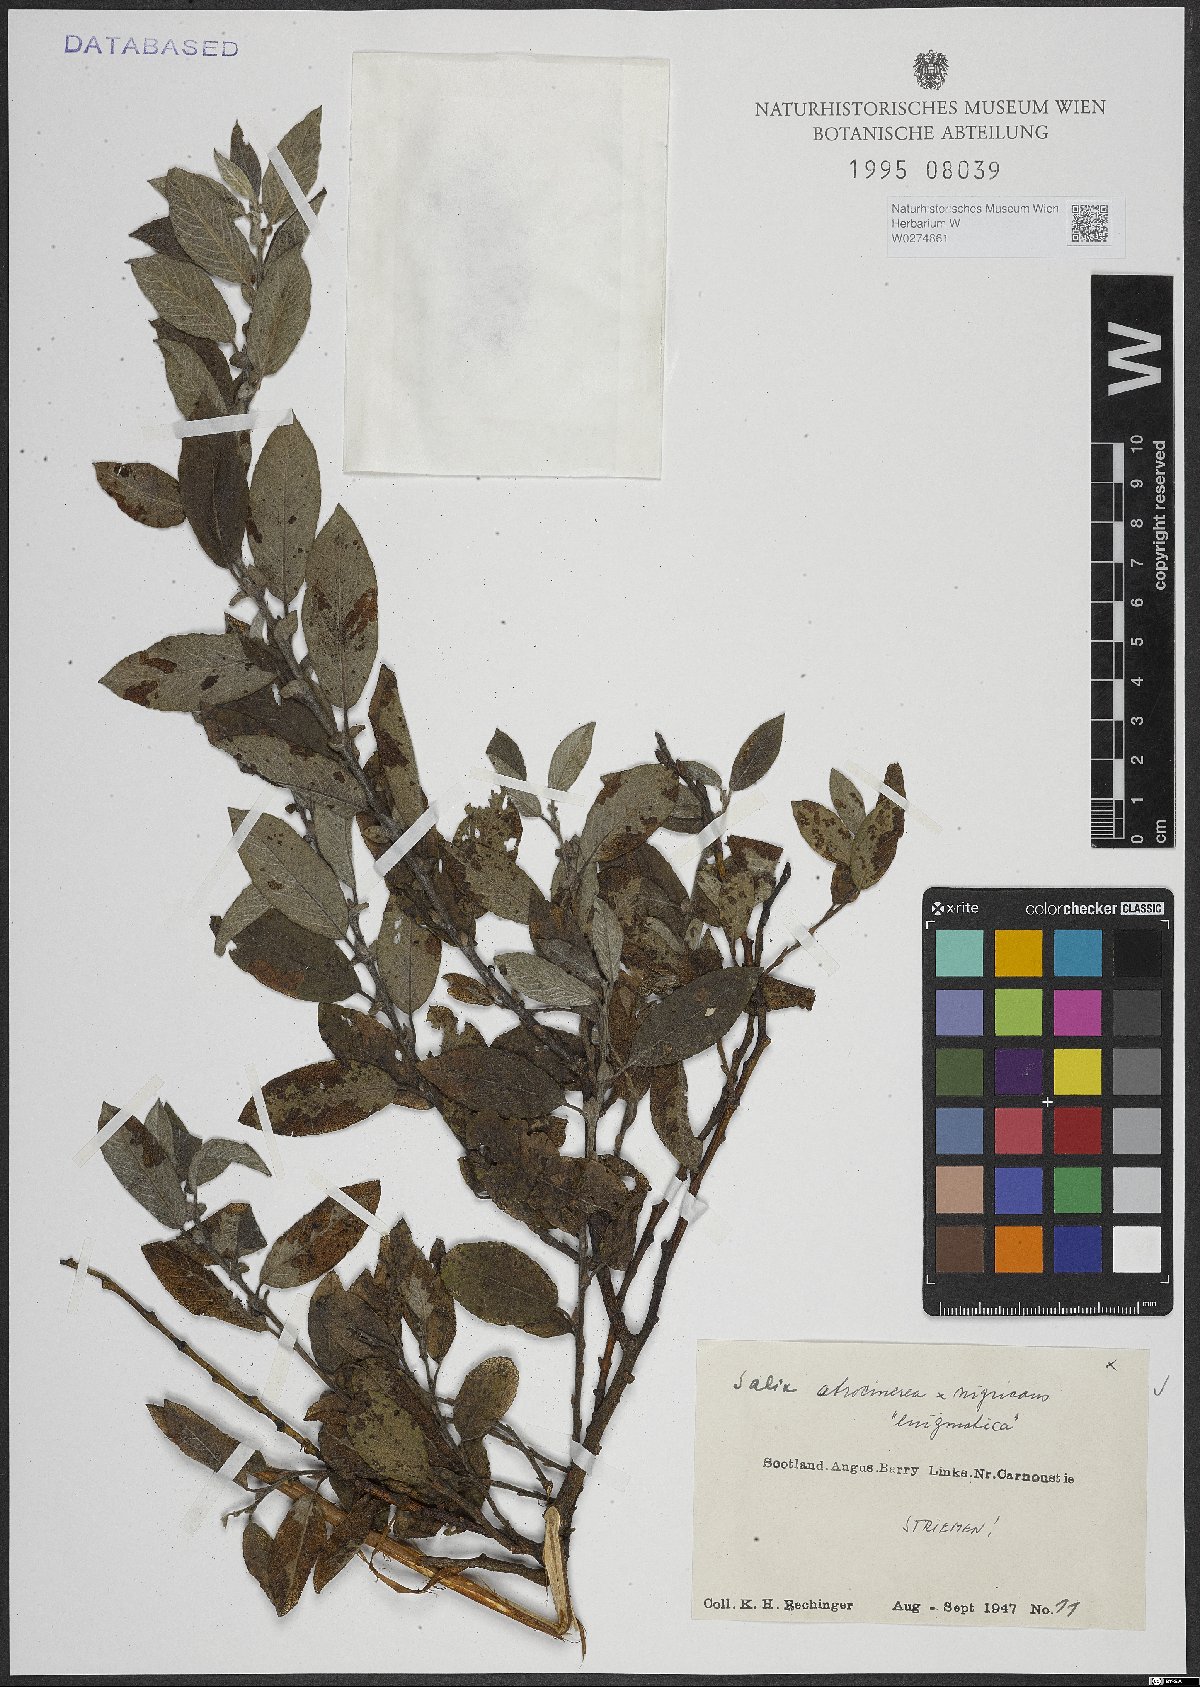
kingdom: Plantae
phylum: Tracheophyta
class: Magnoliopsida
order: Malpighiales
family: Salicaceae
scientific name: Salicaceae
